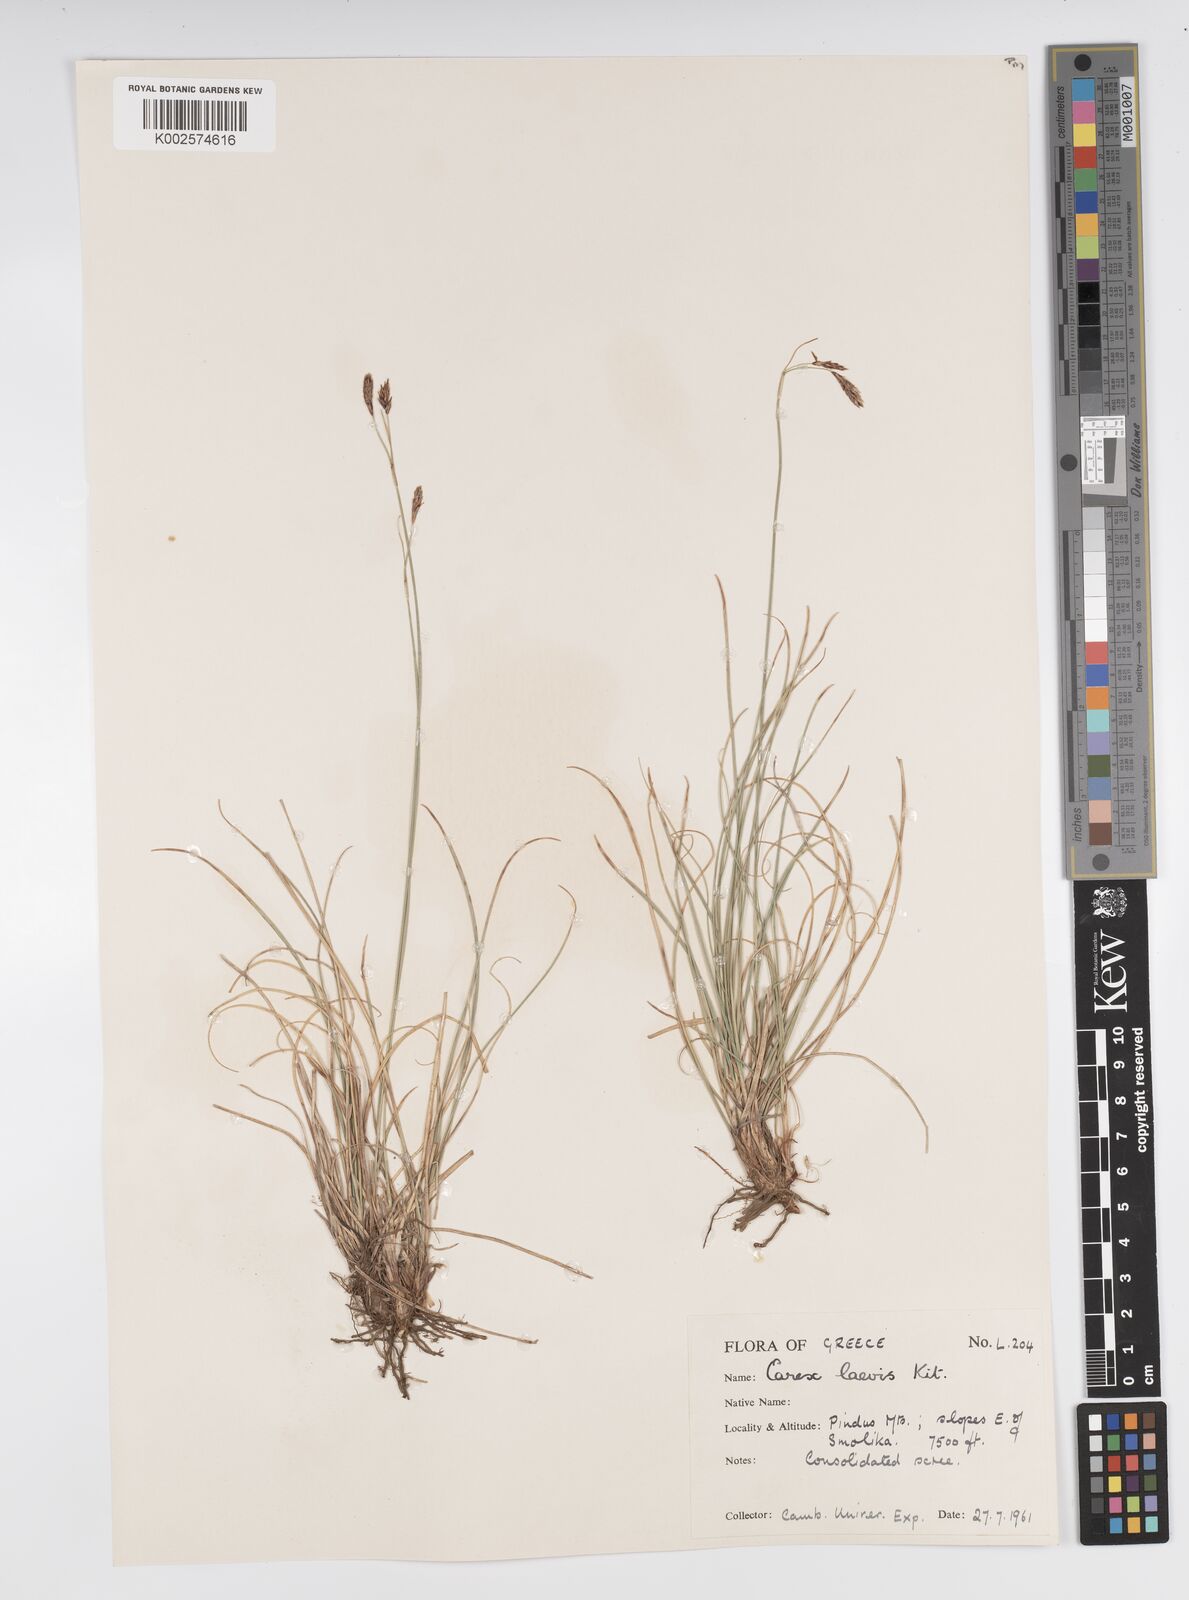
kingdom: Plantae
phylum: Tracheophyta
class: Liliopsida
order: Poales
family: Cyperaceae
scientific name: Cyperaceae
